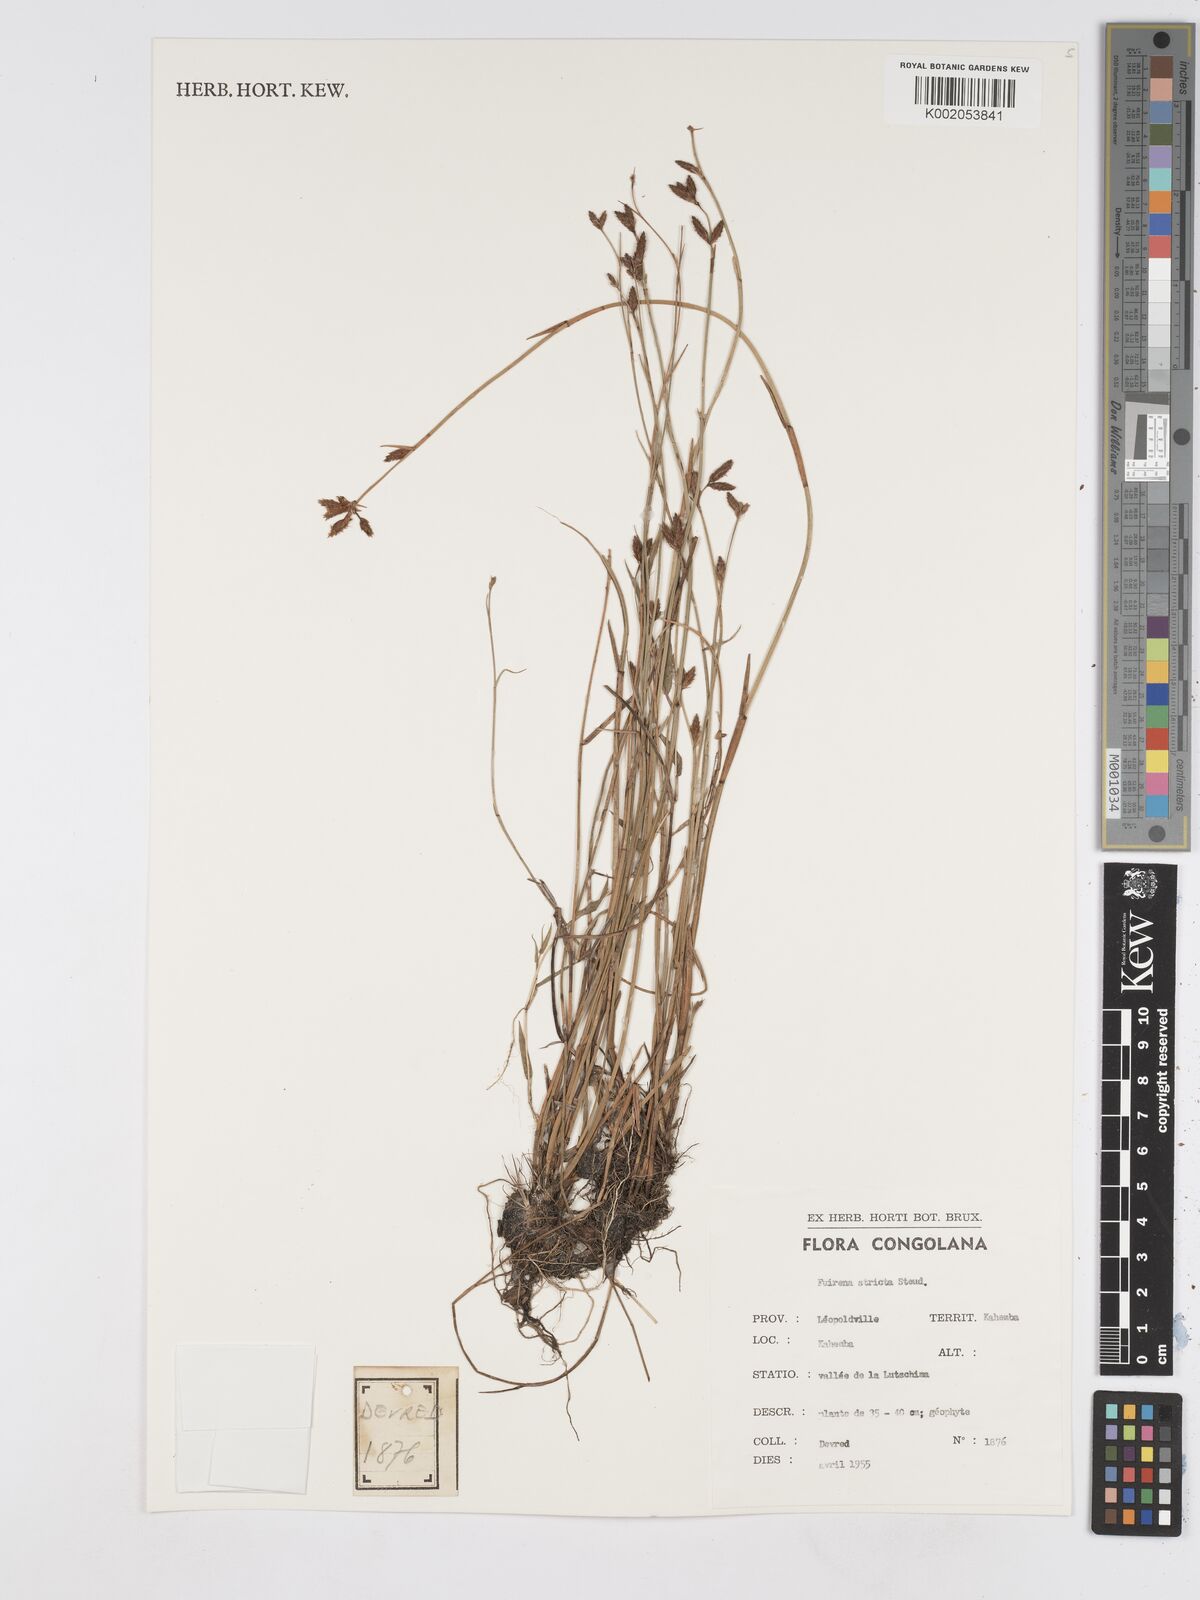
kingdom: Plantae
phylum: Tracheophyta
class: Liliopsida
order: Poales
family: Cyperaceae
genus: Fuirena
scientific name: Fuirena stricta
